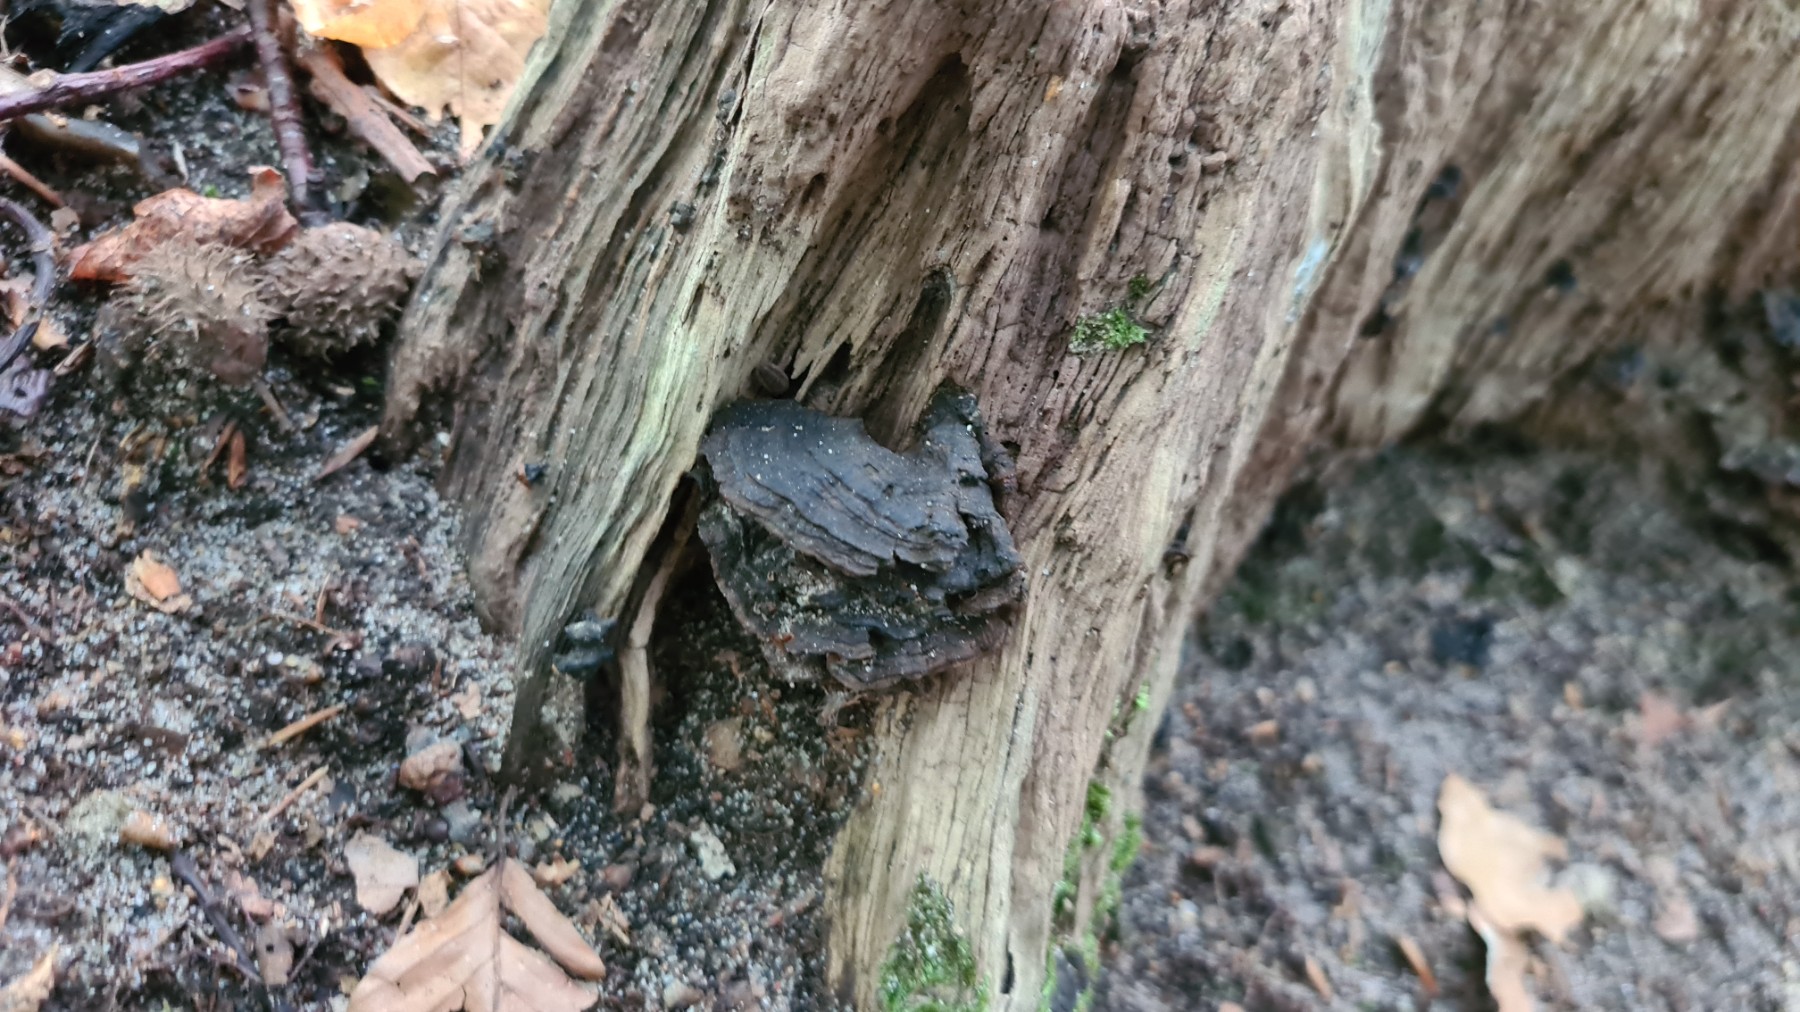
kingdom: Fungi
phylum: Basidiomycota
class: Agaricomycetes
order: Hymenochaetales
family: Hymenochaetaceae
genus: Hymenochaete
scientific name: Hymenochaete rubiginosa
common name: stiv ruslædersvamp
